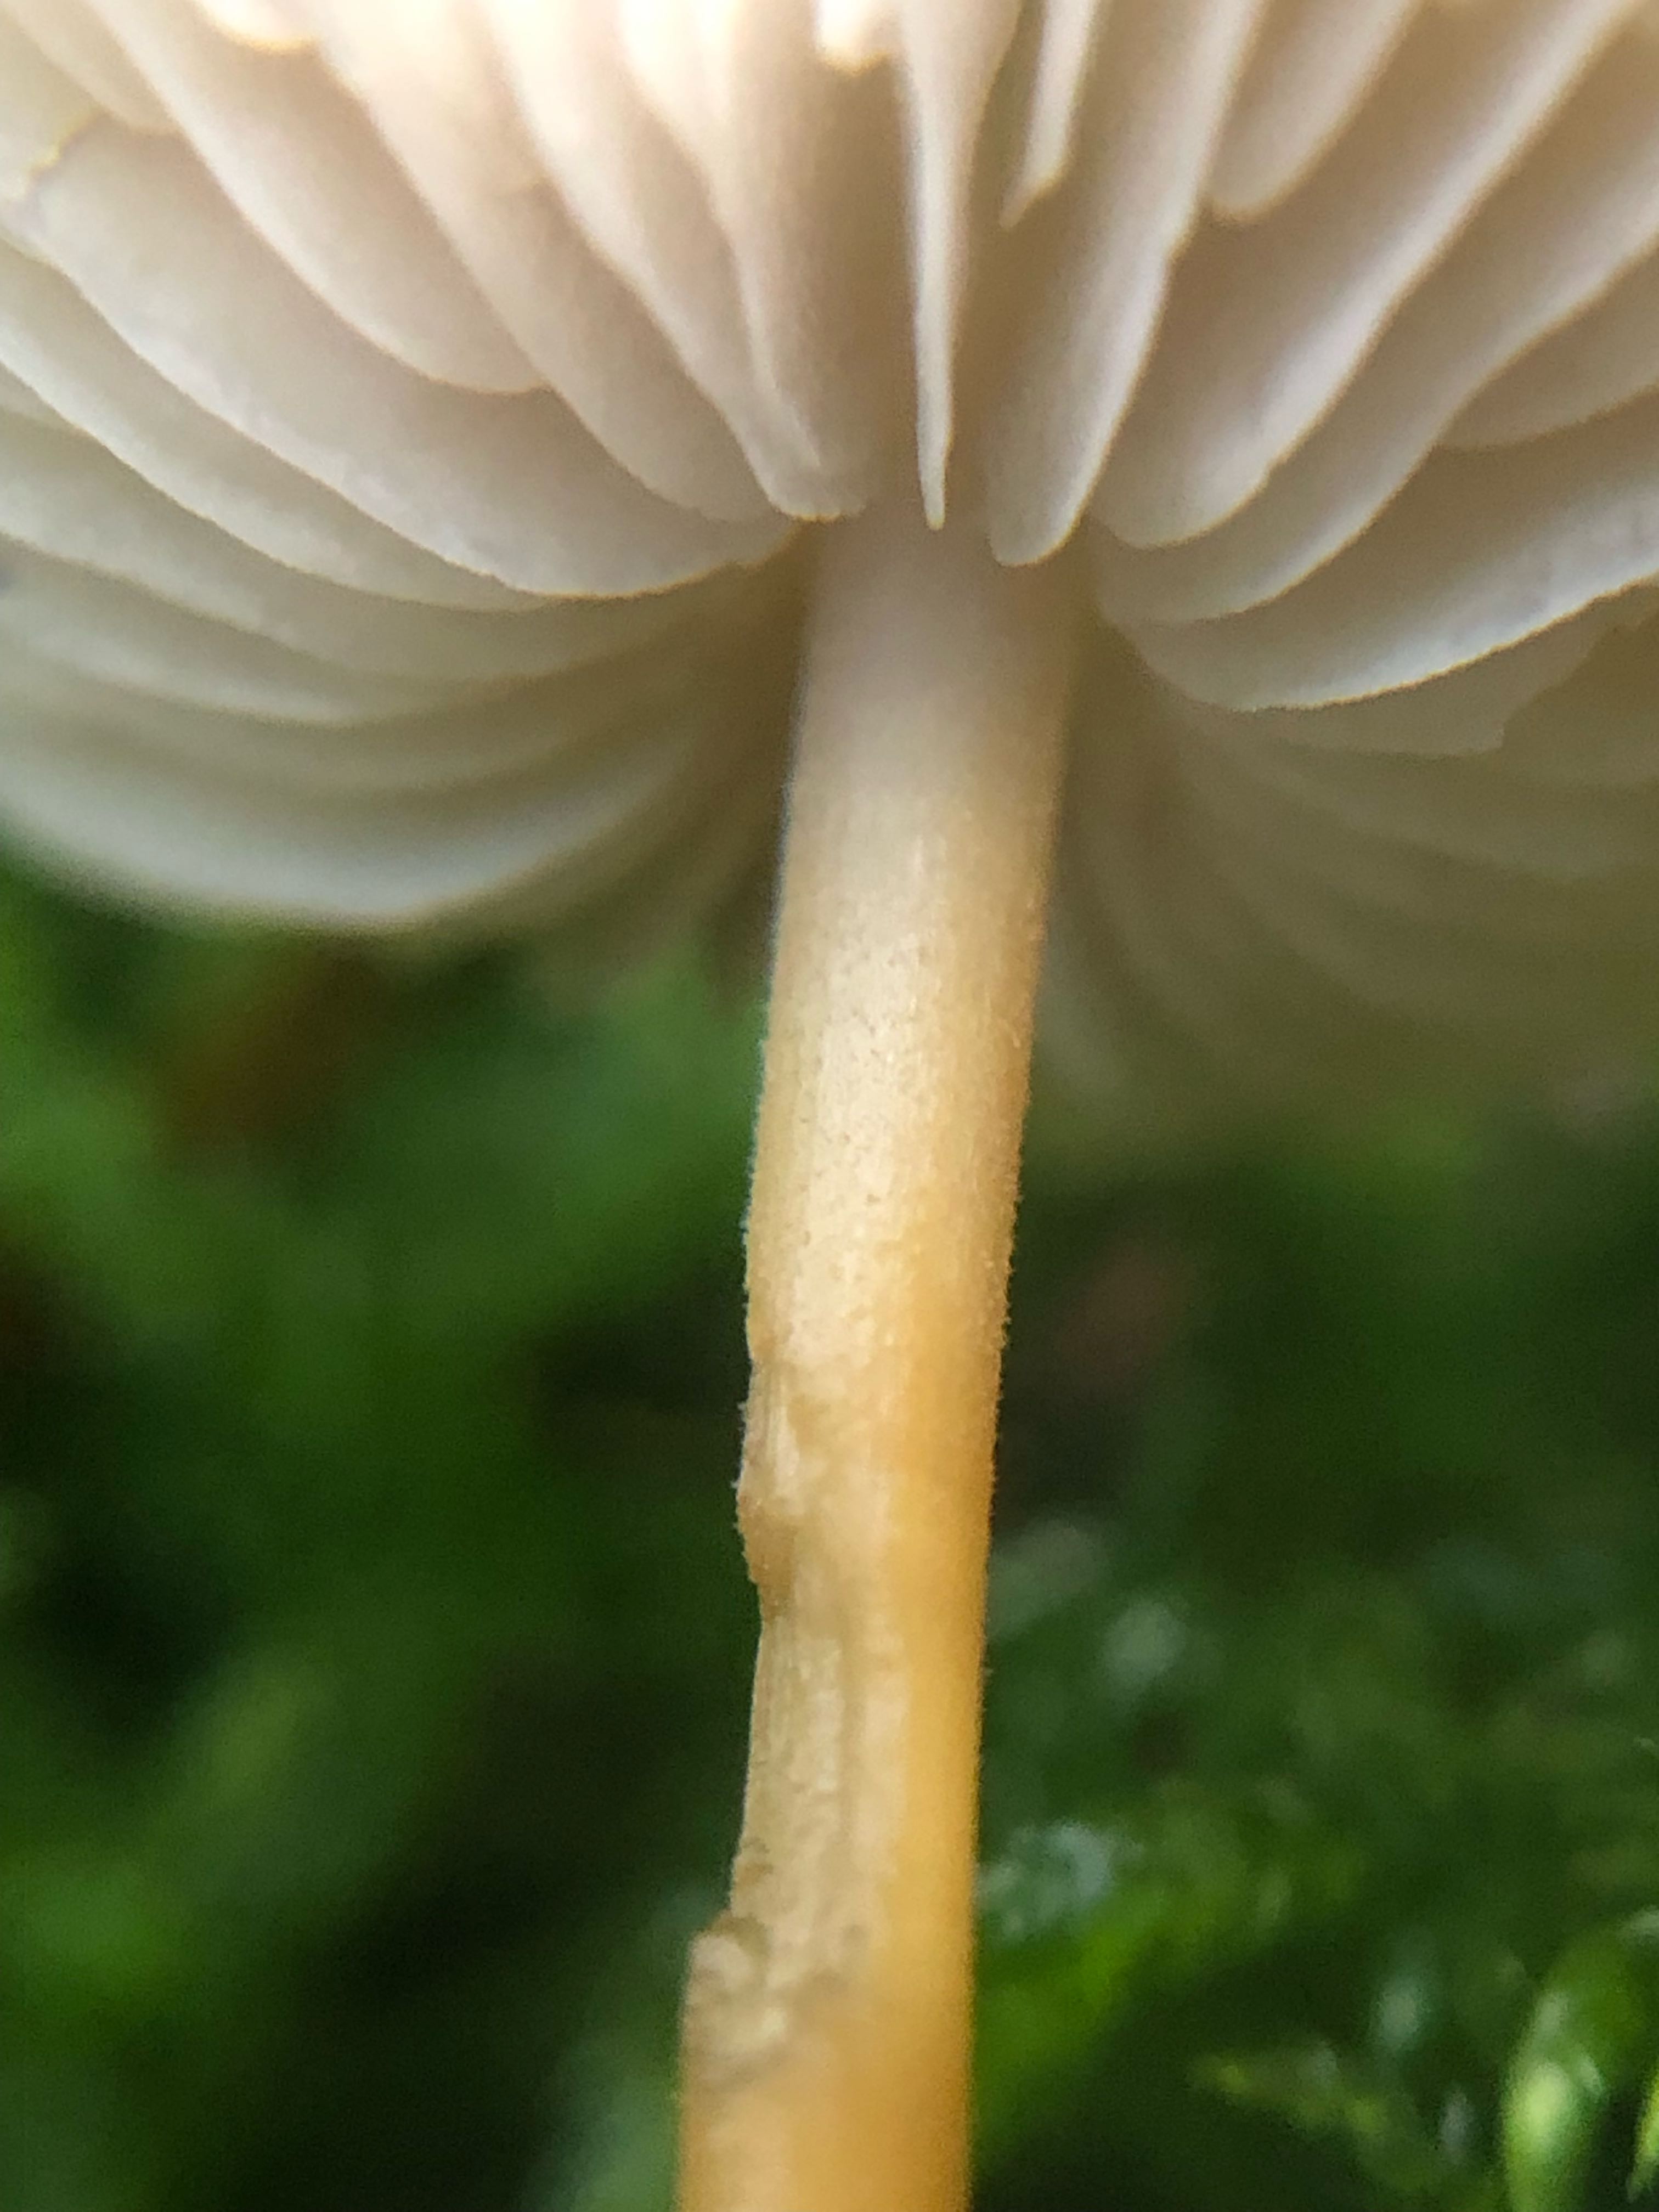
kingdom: Fungi
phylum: Basidiomycota
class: Agaricomycetes
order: Agaricales
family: Physalacriaceae
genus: Strobilurus
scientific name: Strobilurus esculentus
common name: gran-koglehat
